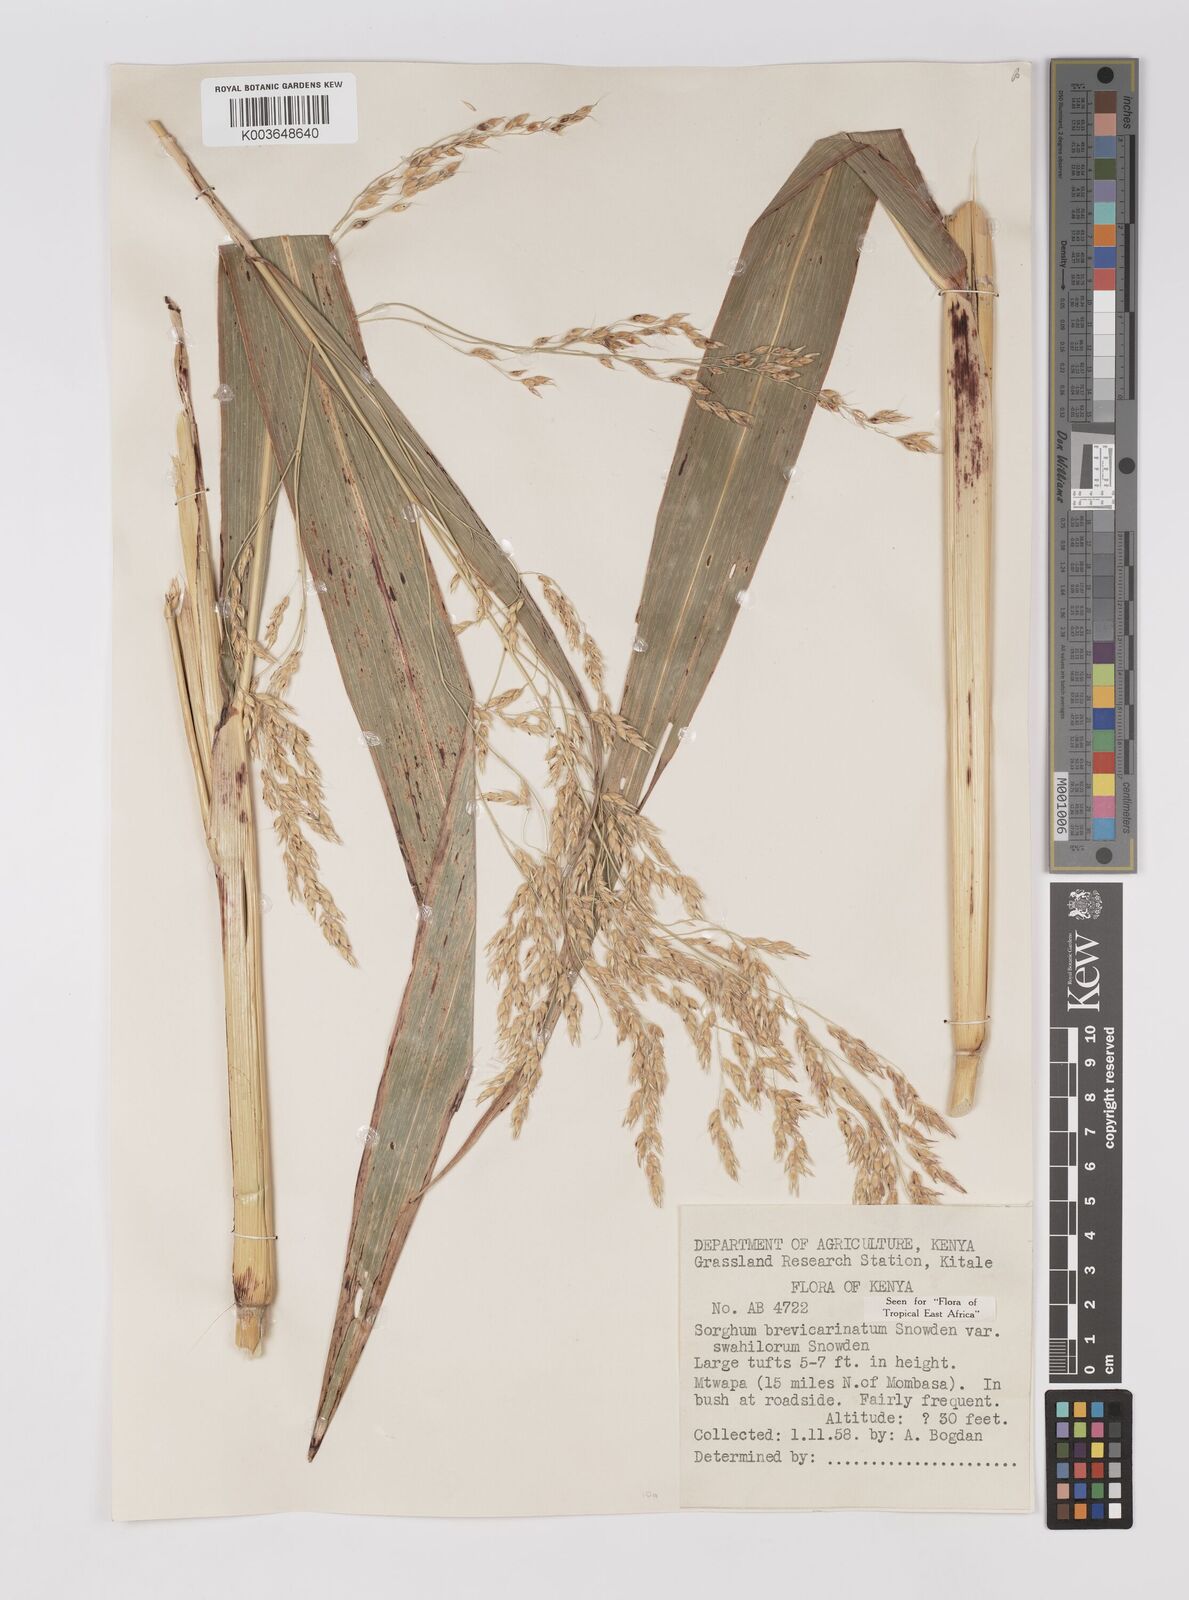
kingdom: Plantae
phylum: Tracheophyta
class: Liliopsida
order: Poales
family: Poaceae
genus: Sorghum
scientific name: Sorghum arundinaceum
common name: Sorghum
